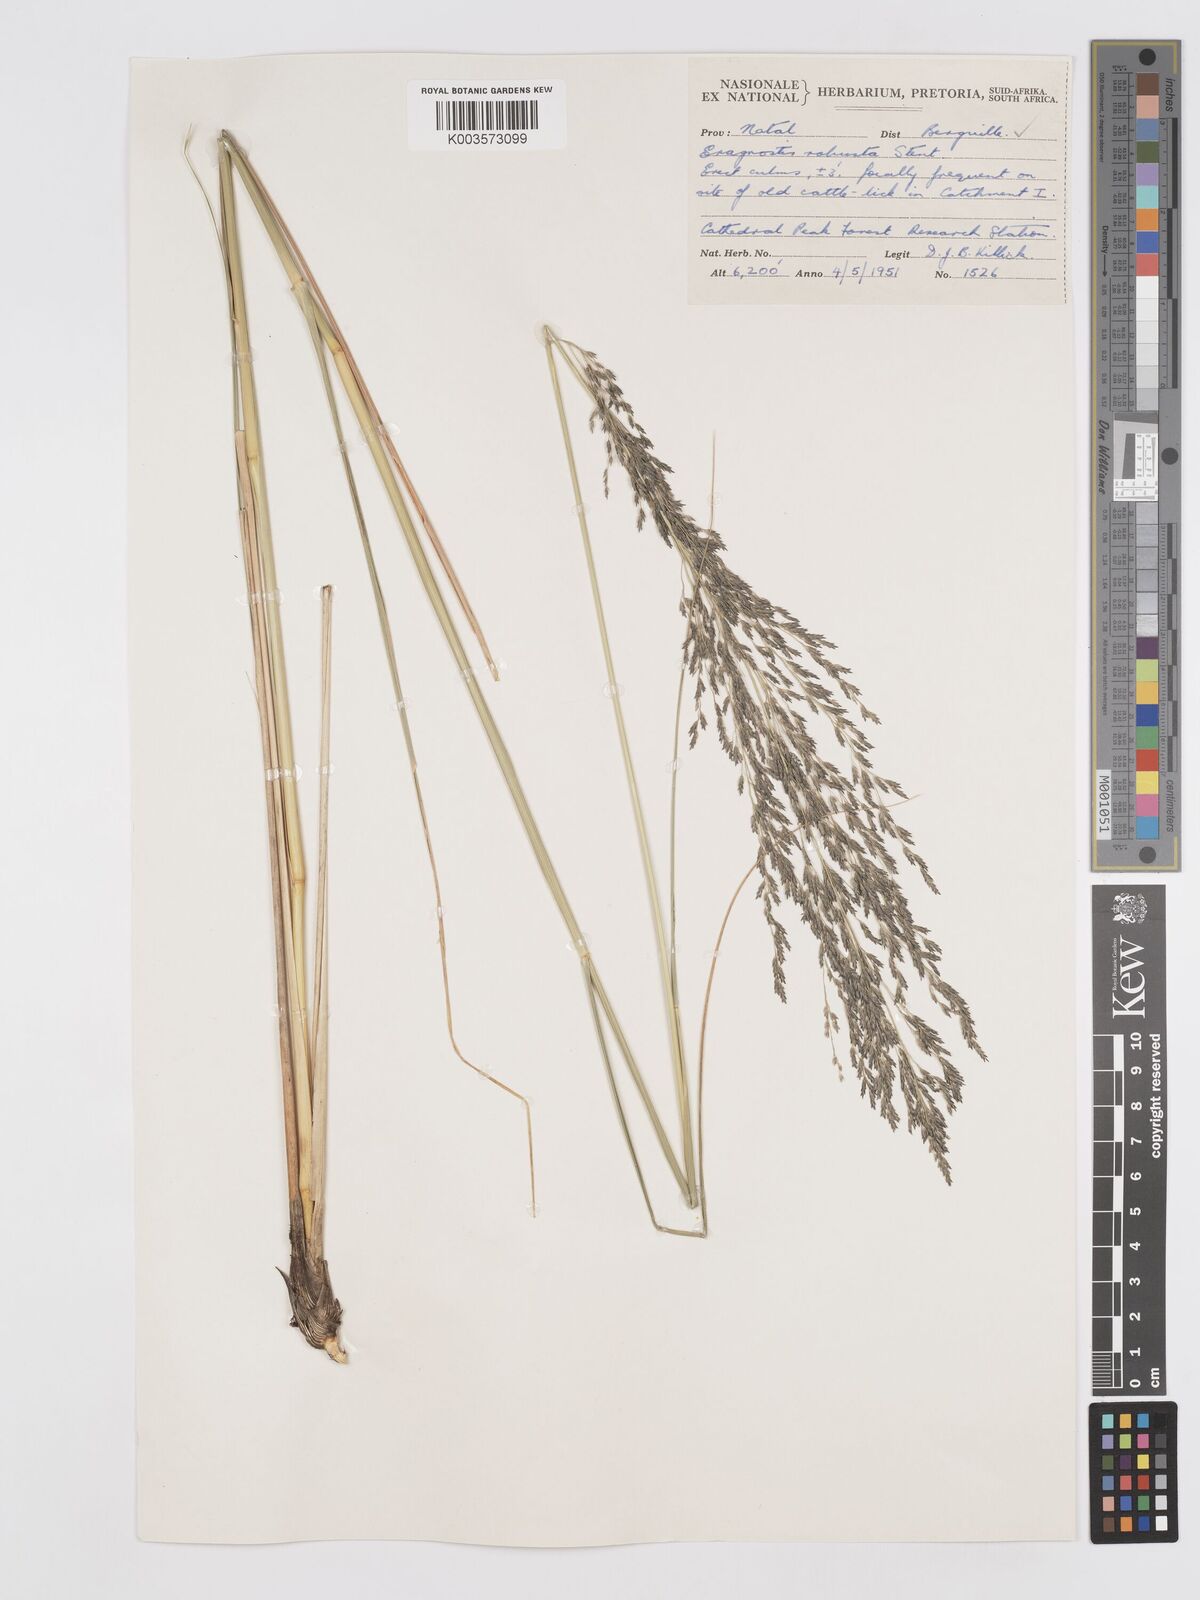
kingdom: Plantae
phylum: Tracheophyta
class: Liliopsida
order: Poales
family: Poaceae
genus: Eragrostis
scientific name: Eragrostis curvula
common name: African love-grass
